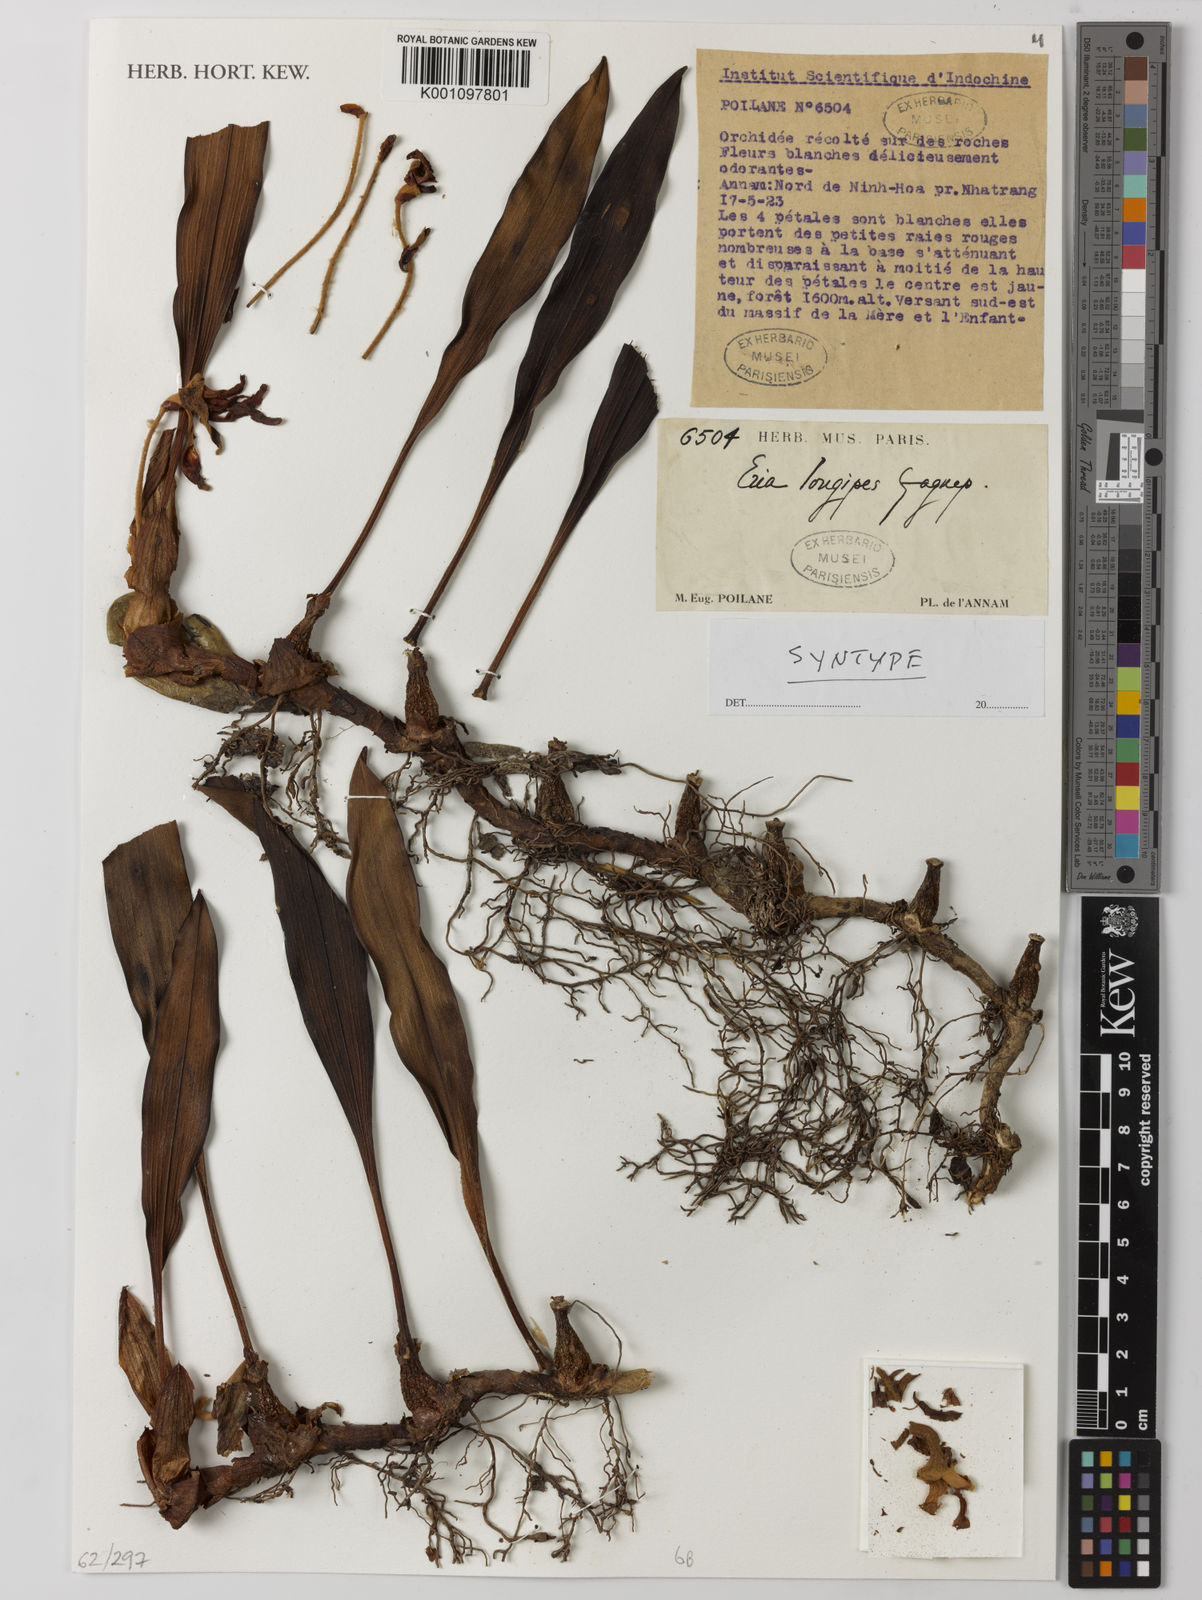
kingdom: Plantae
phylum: Tracheophyta
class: Liliopsida
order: Asparagales
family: Orchidaceae
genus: Campanulorchis
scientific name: Campanulorchis longipes
